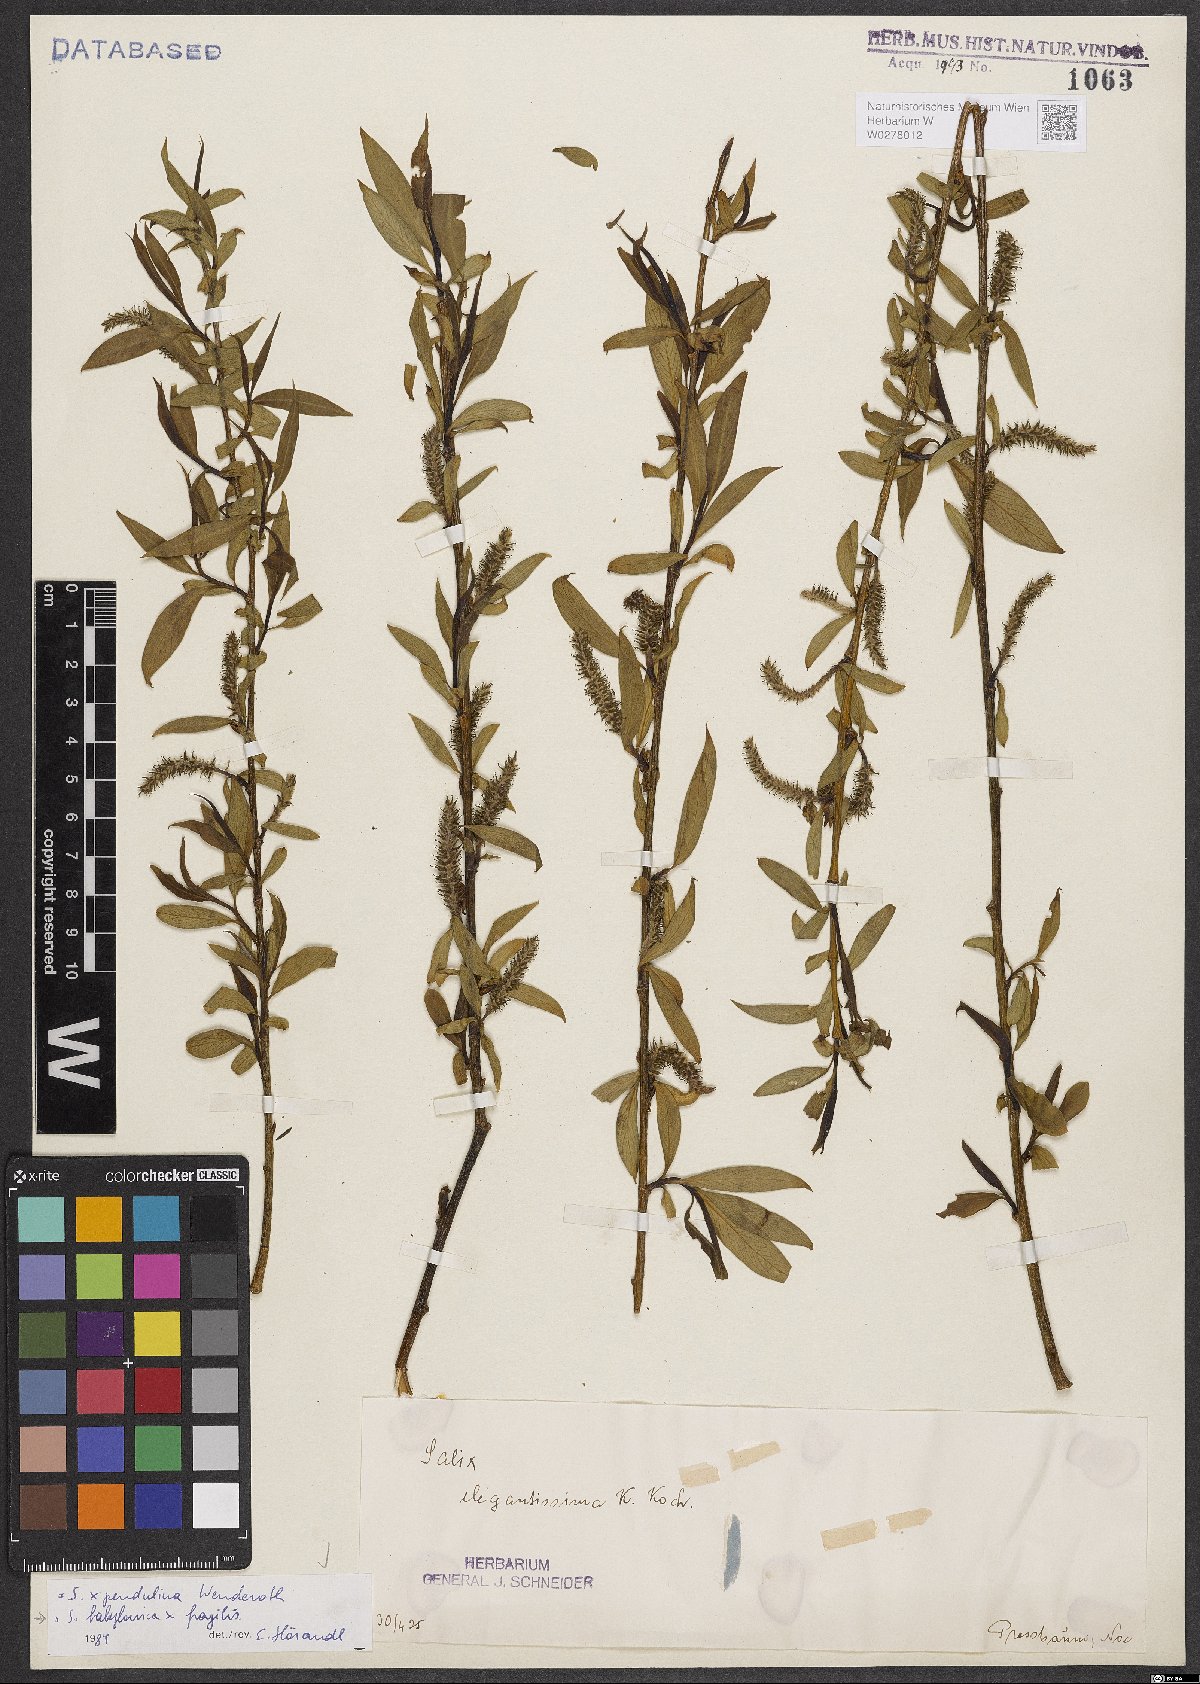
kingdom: Plantae
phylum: Tracheophyta
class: Magnoliopsida
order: Malpighiales
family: Salicaceae
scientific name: Salicaceae
